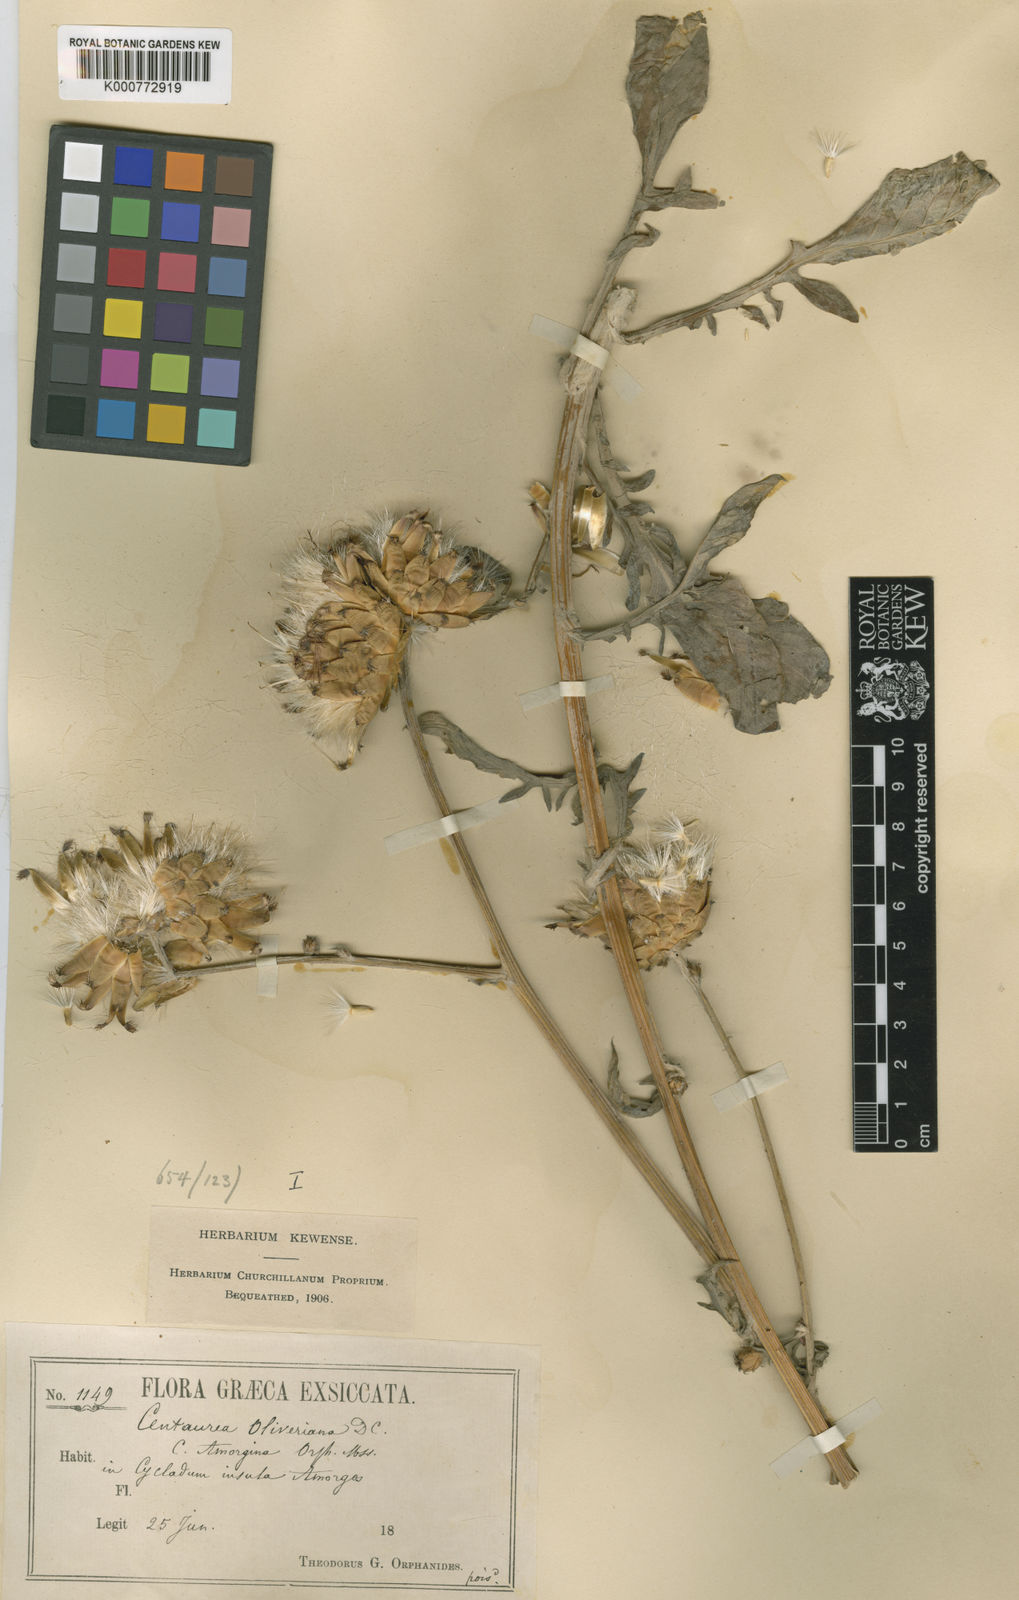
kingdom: Plantae
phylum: Tracheophyta
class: Magnoliopsida
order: Asterales
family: Asteraceae
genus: Centaurea
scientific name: Centaurea
